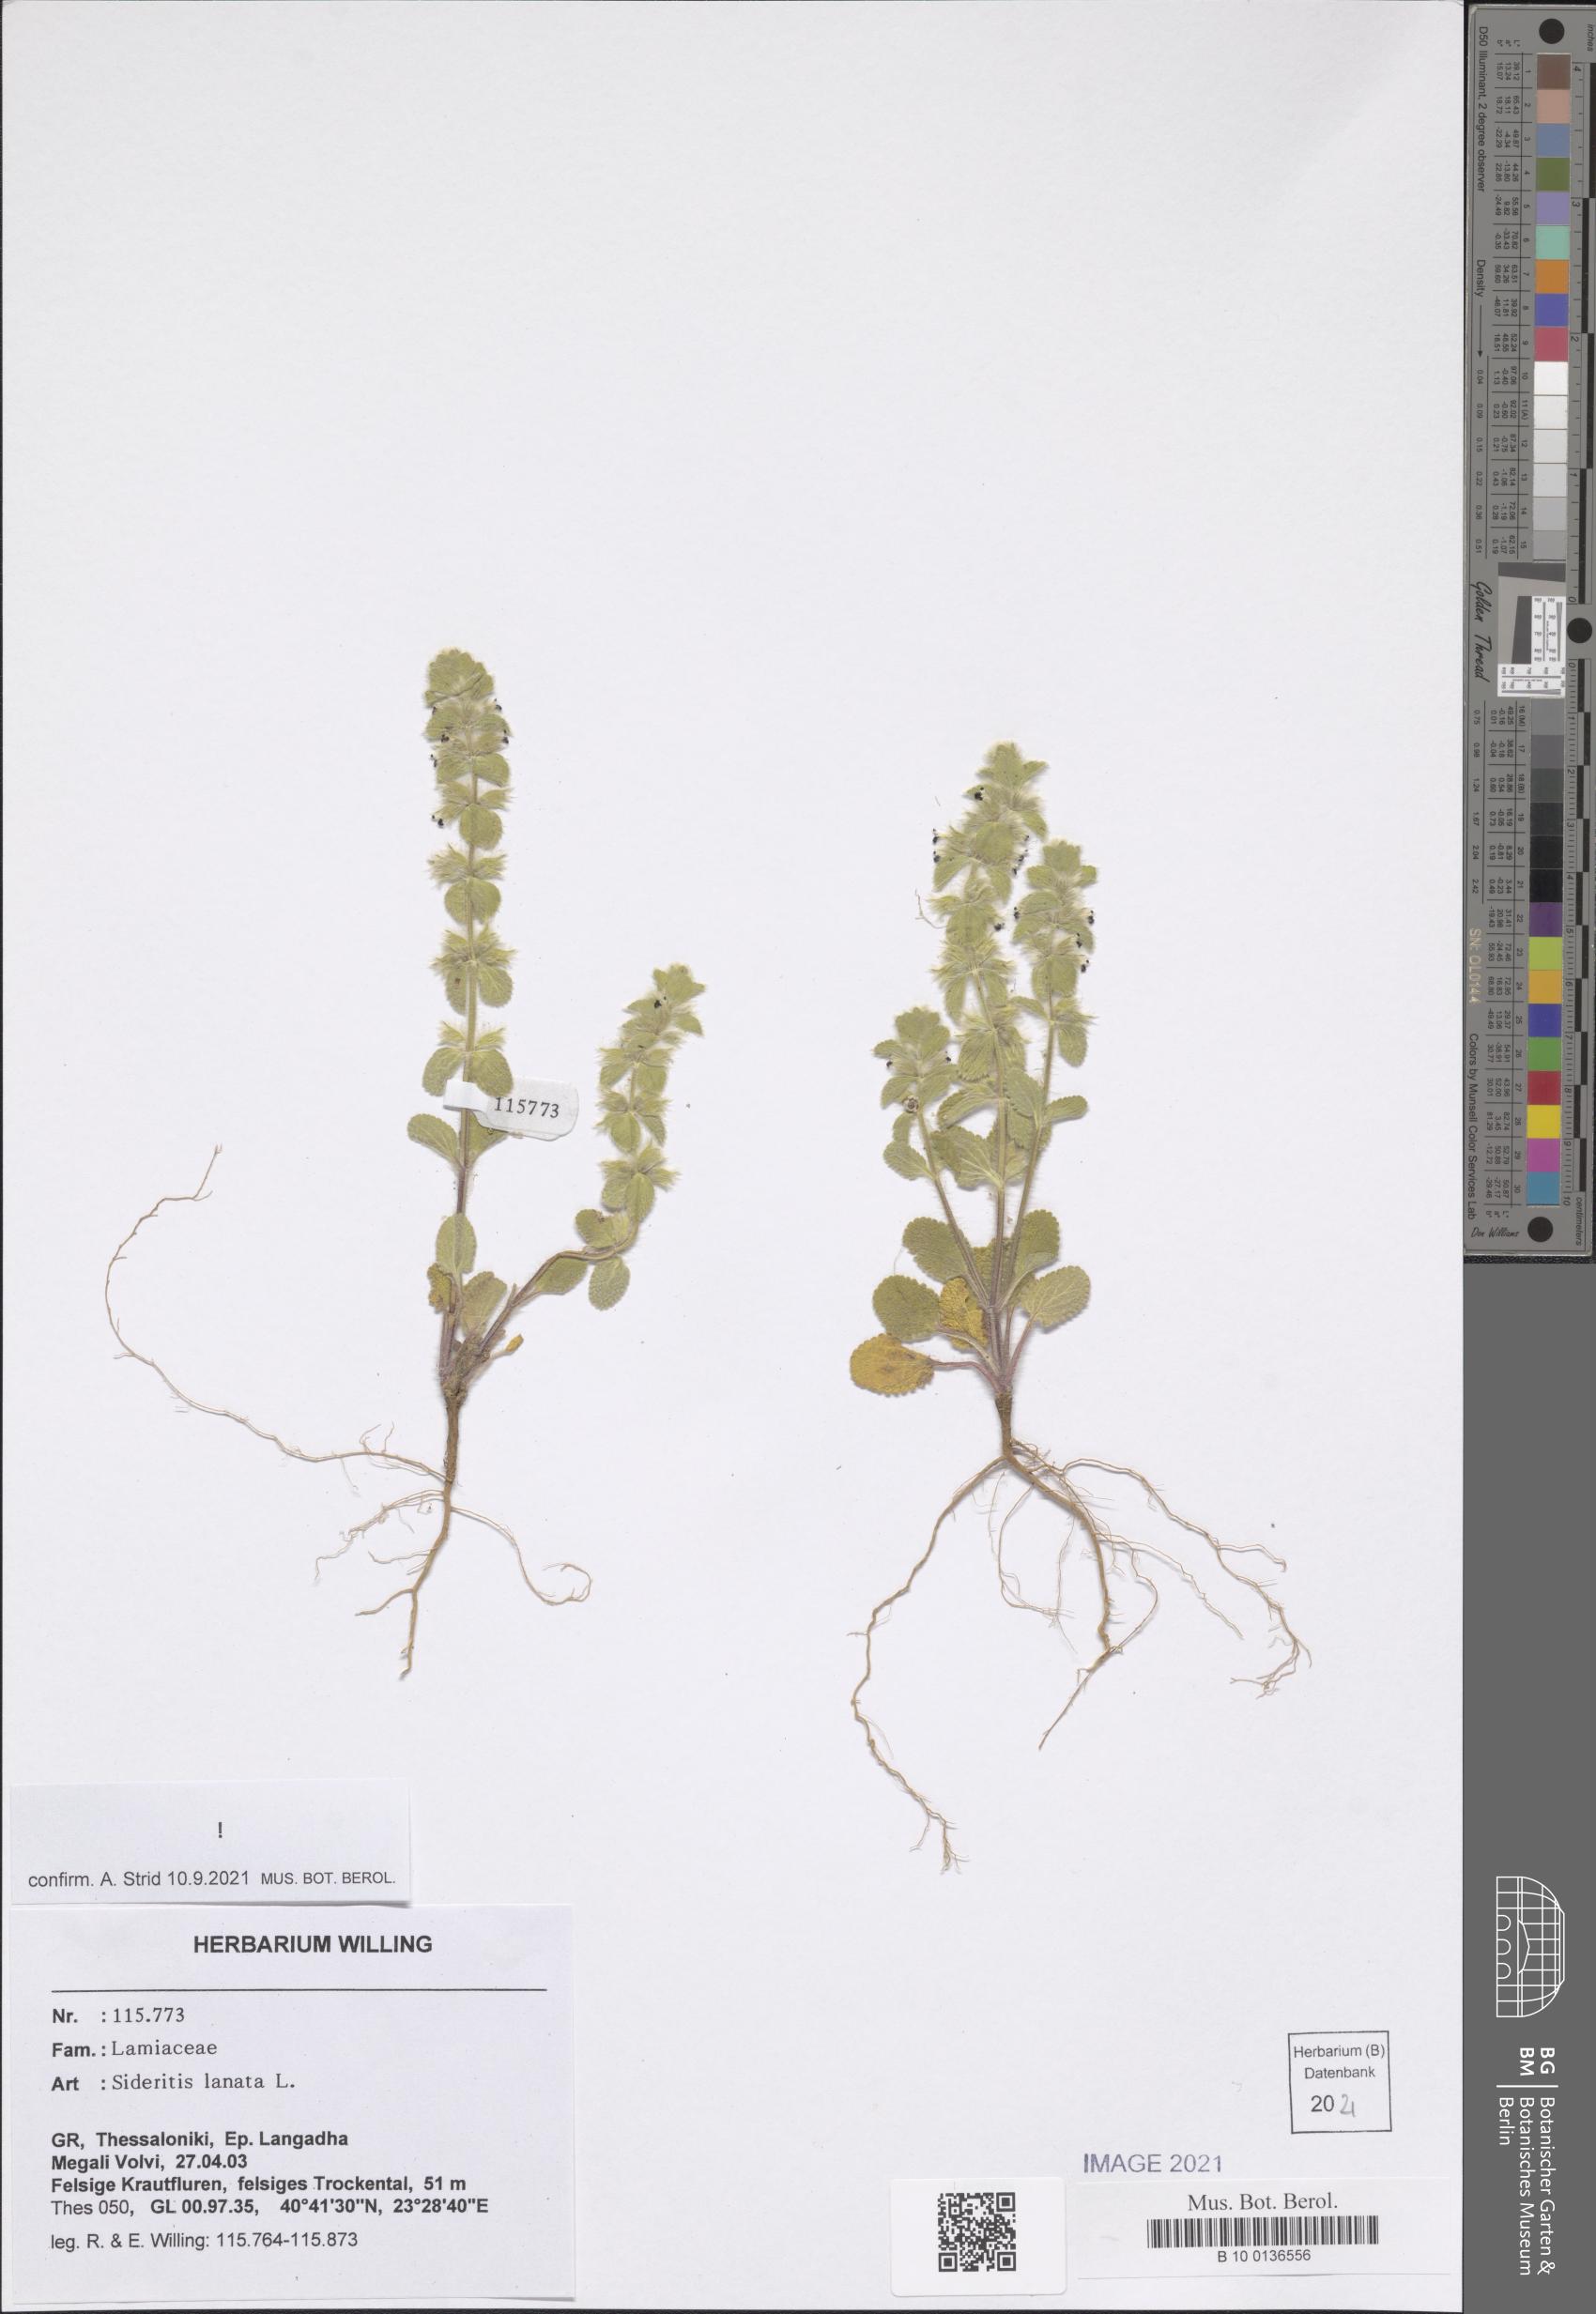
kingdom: Plantae
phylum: Tracheophyta
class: Magnoliopsida
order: Lamiales
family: Lamiaceae
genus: Sideritis
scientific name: Sideritis lanata
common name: Hairy ironwort
